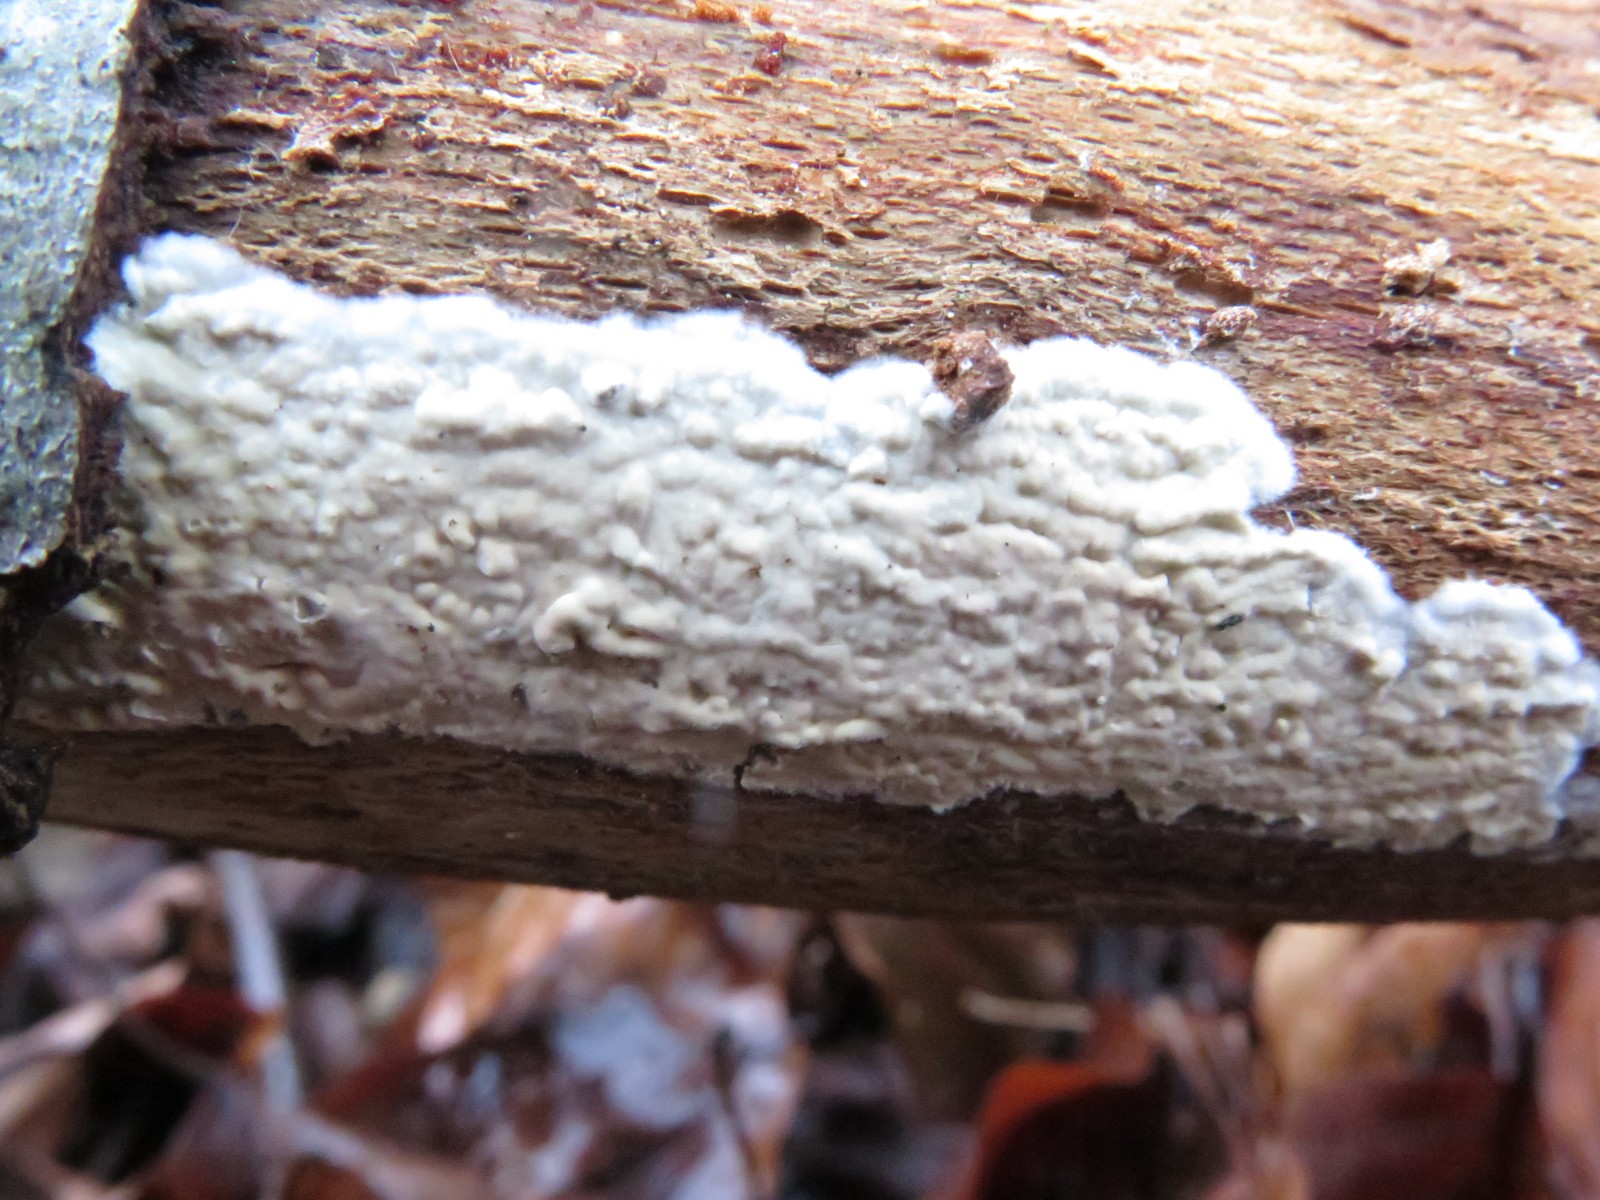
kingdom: Fungi
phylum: Basidiomycota
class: Agaricomycetes
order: Agaricales
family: Physalacriaceae
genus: Cylindrobasidium
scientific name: Cylindrobasidium evolvens
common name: sprækkehinde
